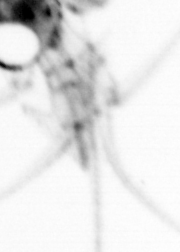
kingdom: Animalia
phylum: Chordata
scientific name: Chordata
